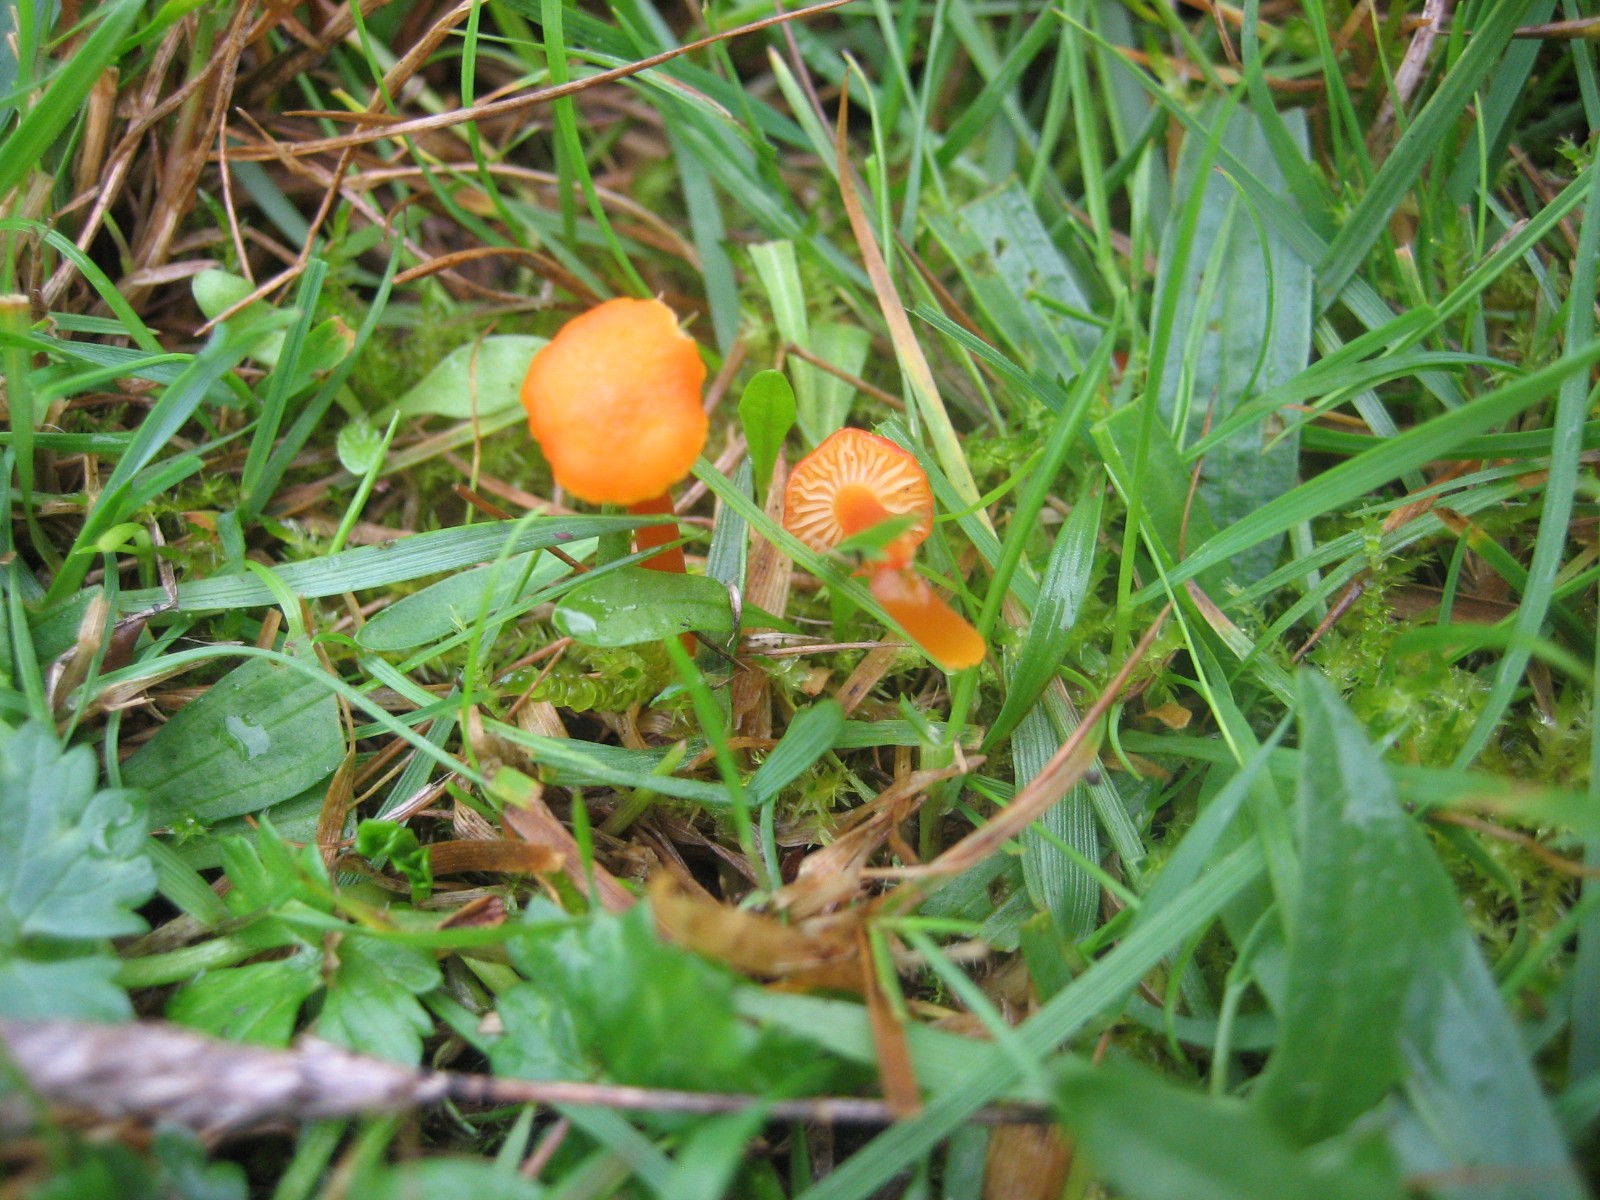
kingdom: Fungi
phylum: Basidiomycota
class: Agaricomycetes
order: Agaricales
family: Hygrophoraceae
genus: Hygrocybe
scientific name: Hygrocybe insipida
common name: liden vokshat
